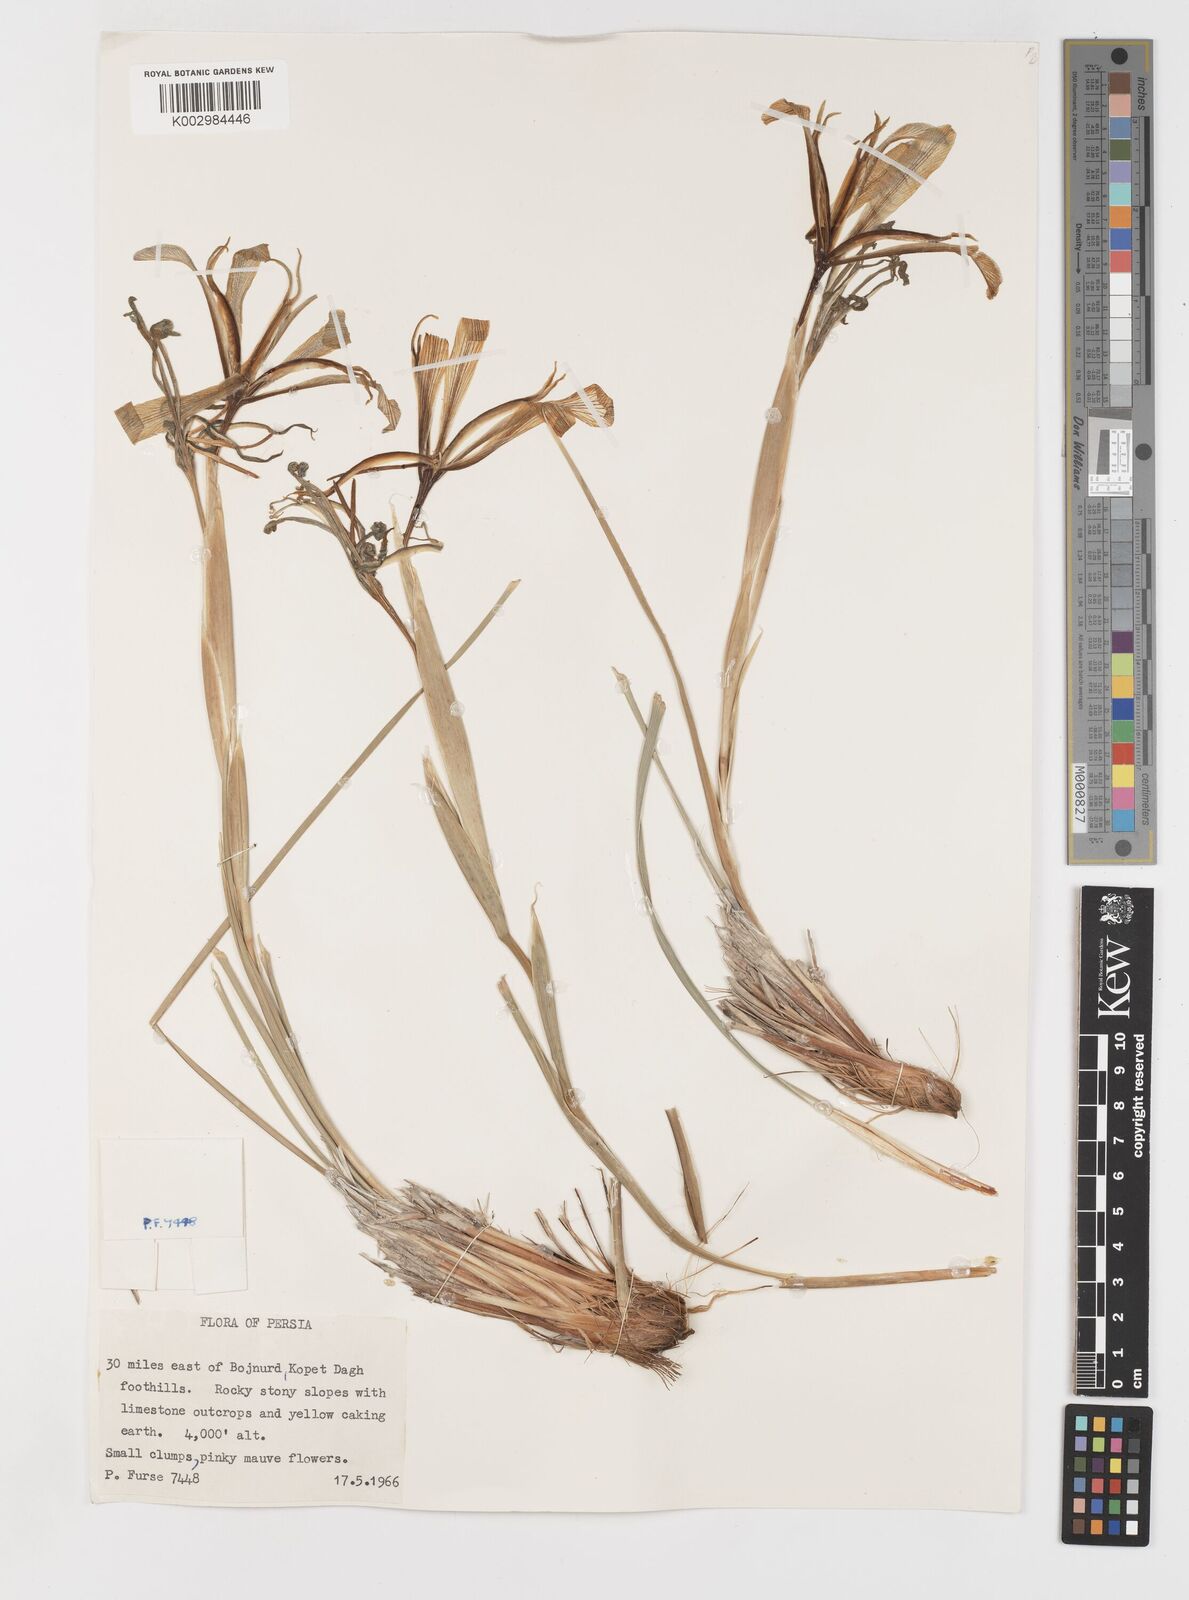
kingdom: Plantae
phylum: Tracheophyta
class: Liliopsida
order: Asparagales
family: Iridaceae
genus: Iris
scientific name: Iris songarica
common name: Songar iris
